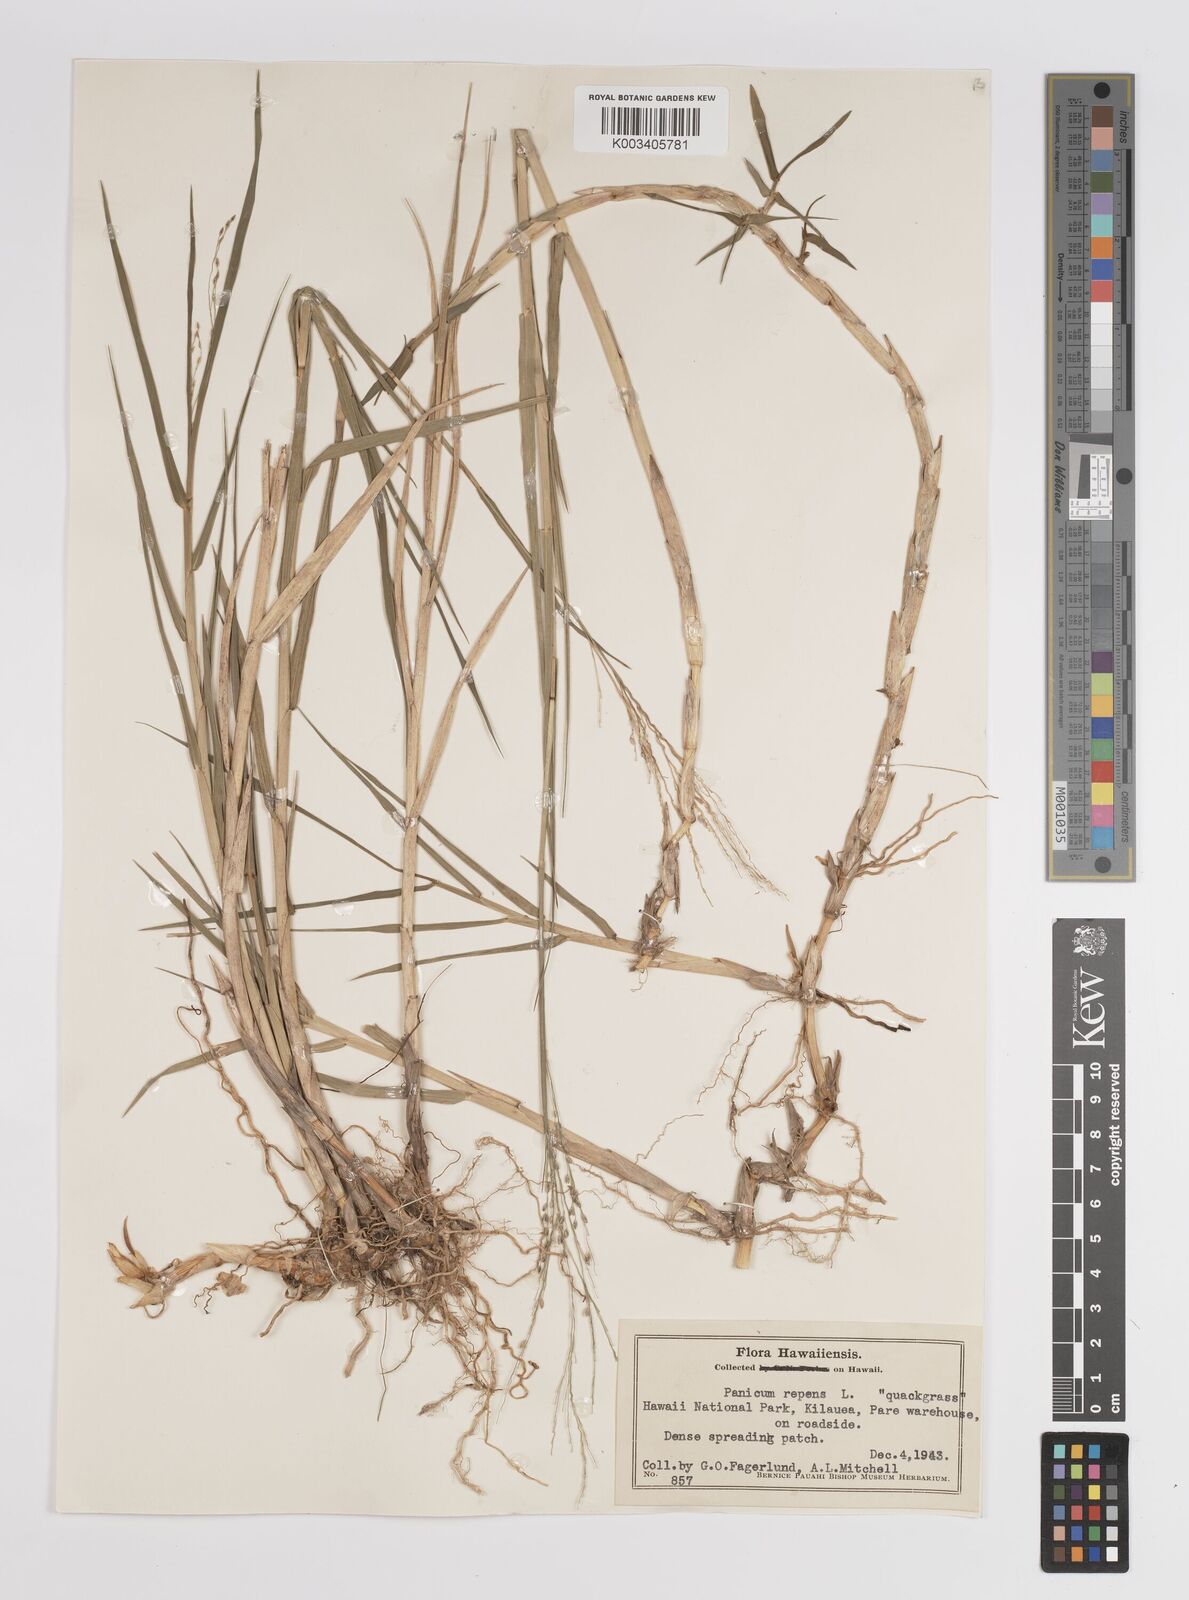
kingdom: Plantae
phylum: Tracheophyta
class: Liliopsida
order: Poales
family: Poaceae
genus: Panicum
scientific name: Panicum repens
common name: Torpedo grass
